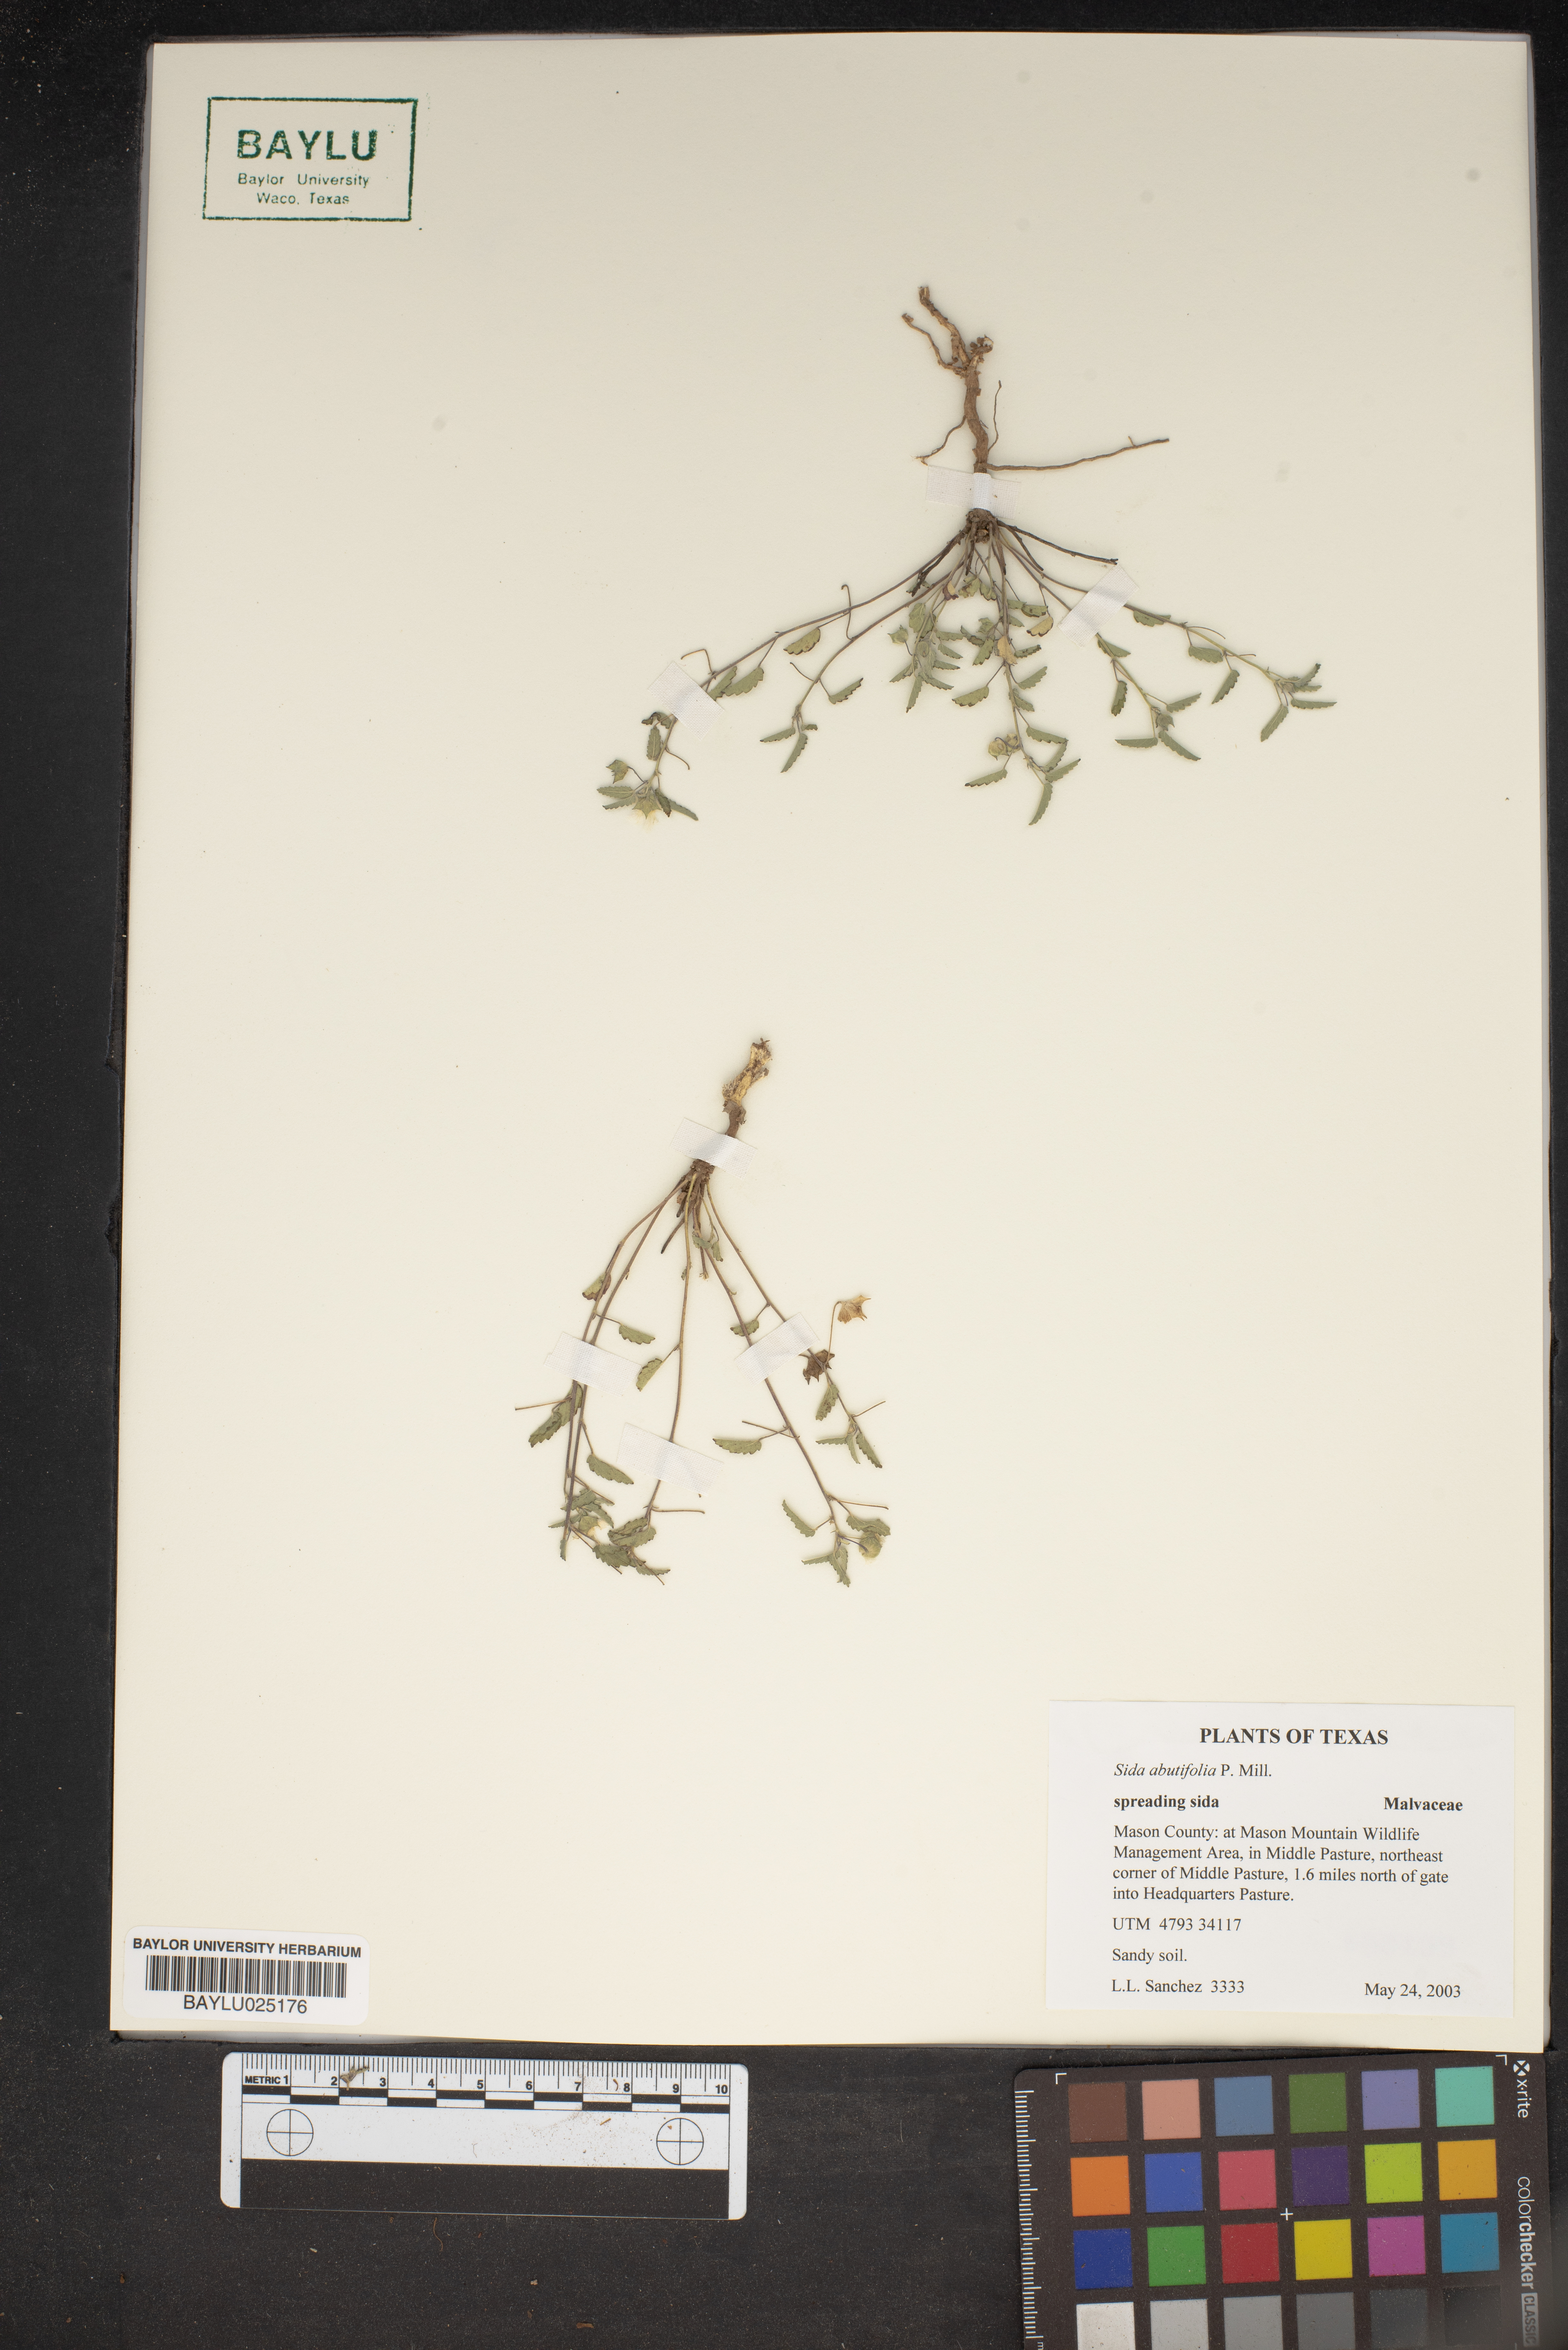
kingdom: Plantae
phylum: Tracheophyta
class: Magnoliopsida
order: Malvales
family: Malvaceae
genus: Sida
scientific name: Sida abutifolia
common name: Spreading fantails
